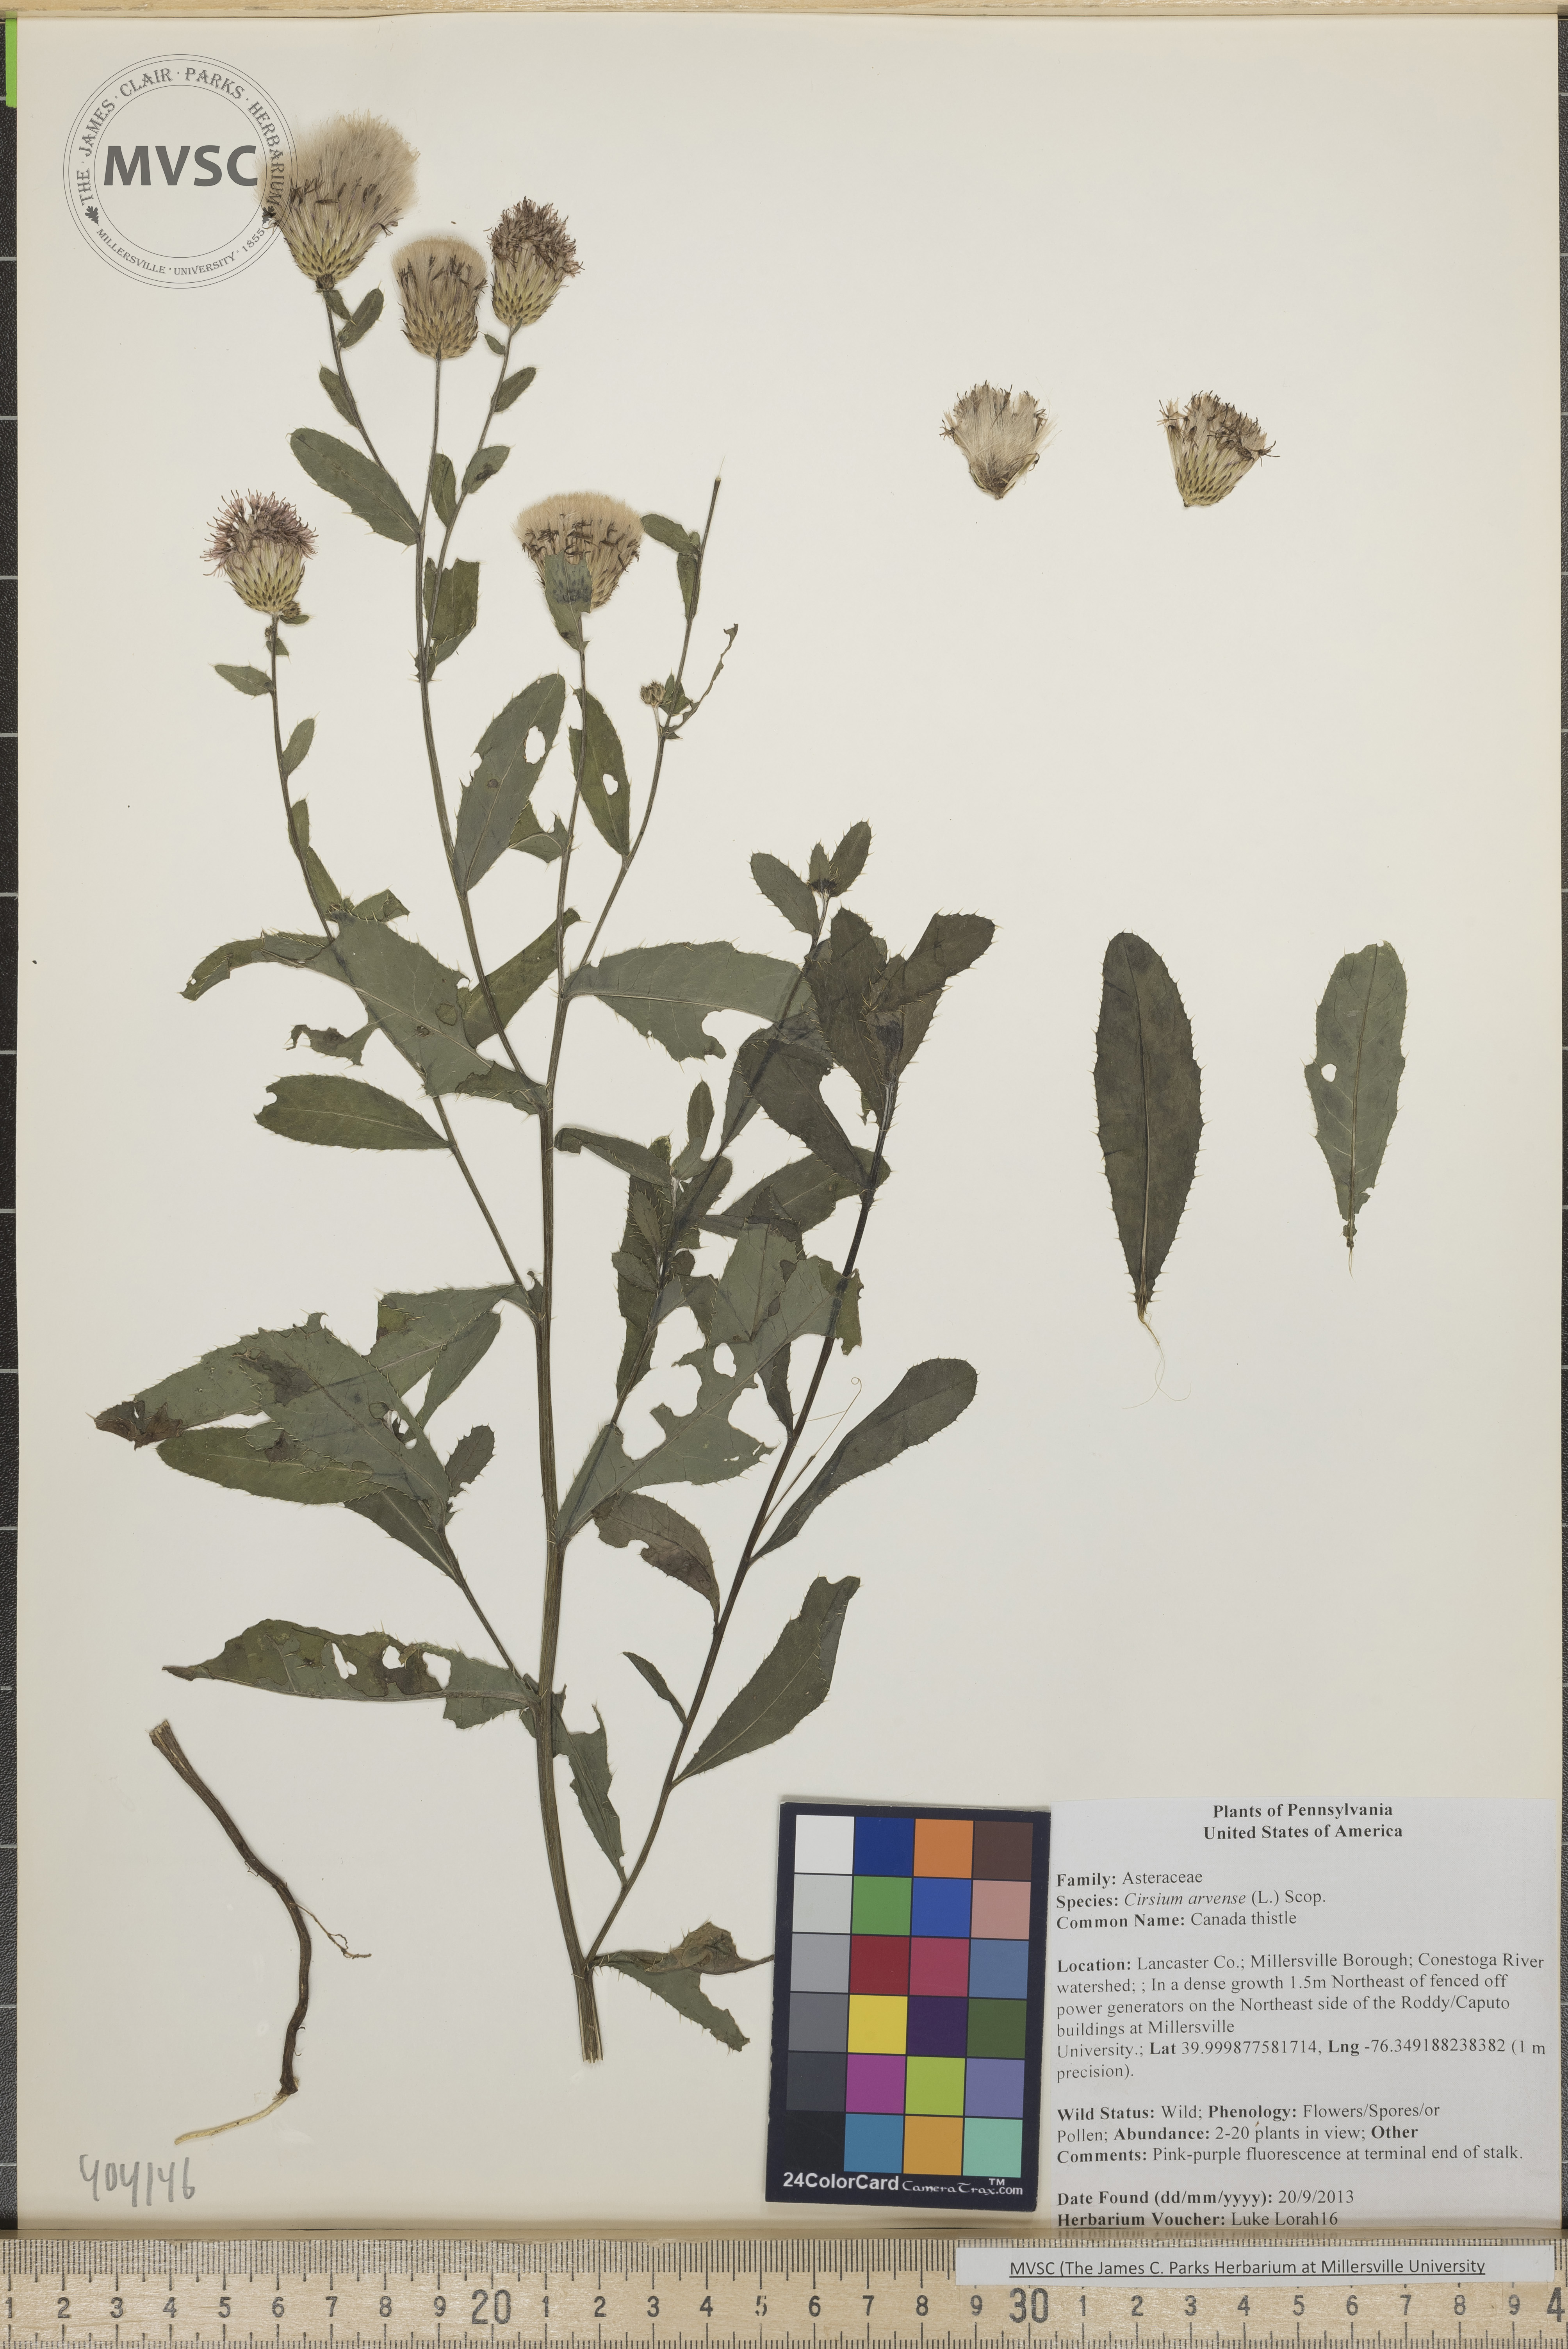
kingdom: Plantae
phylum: Tracheophyta
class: Magnoliopsida
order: Asterales
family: Asteraceae
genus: Cirsium
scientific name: Cirsium arvense
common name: Canada thistle
